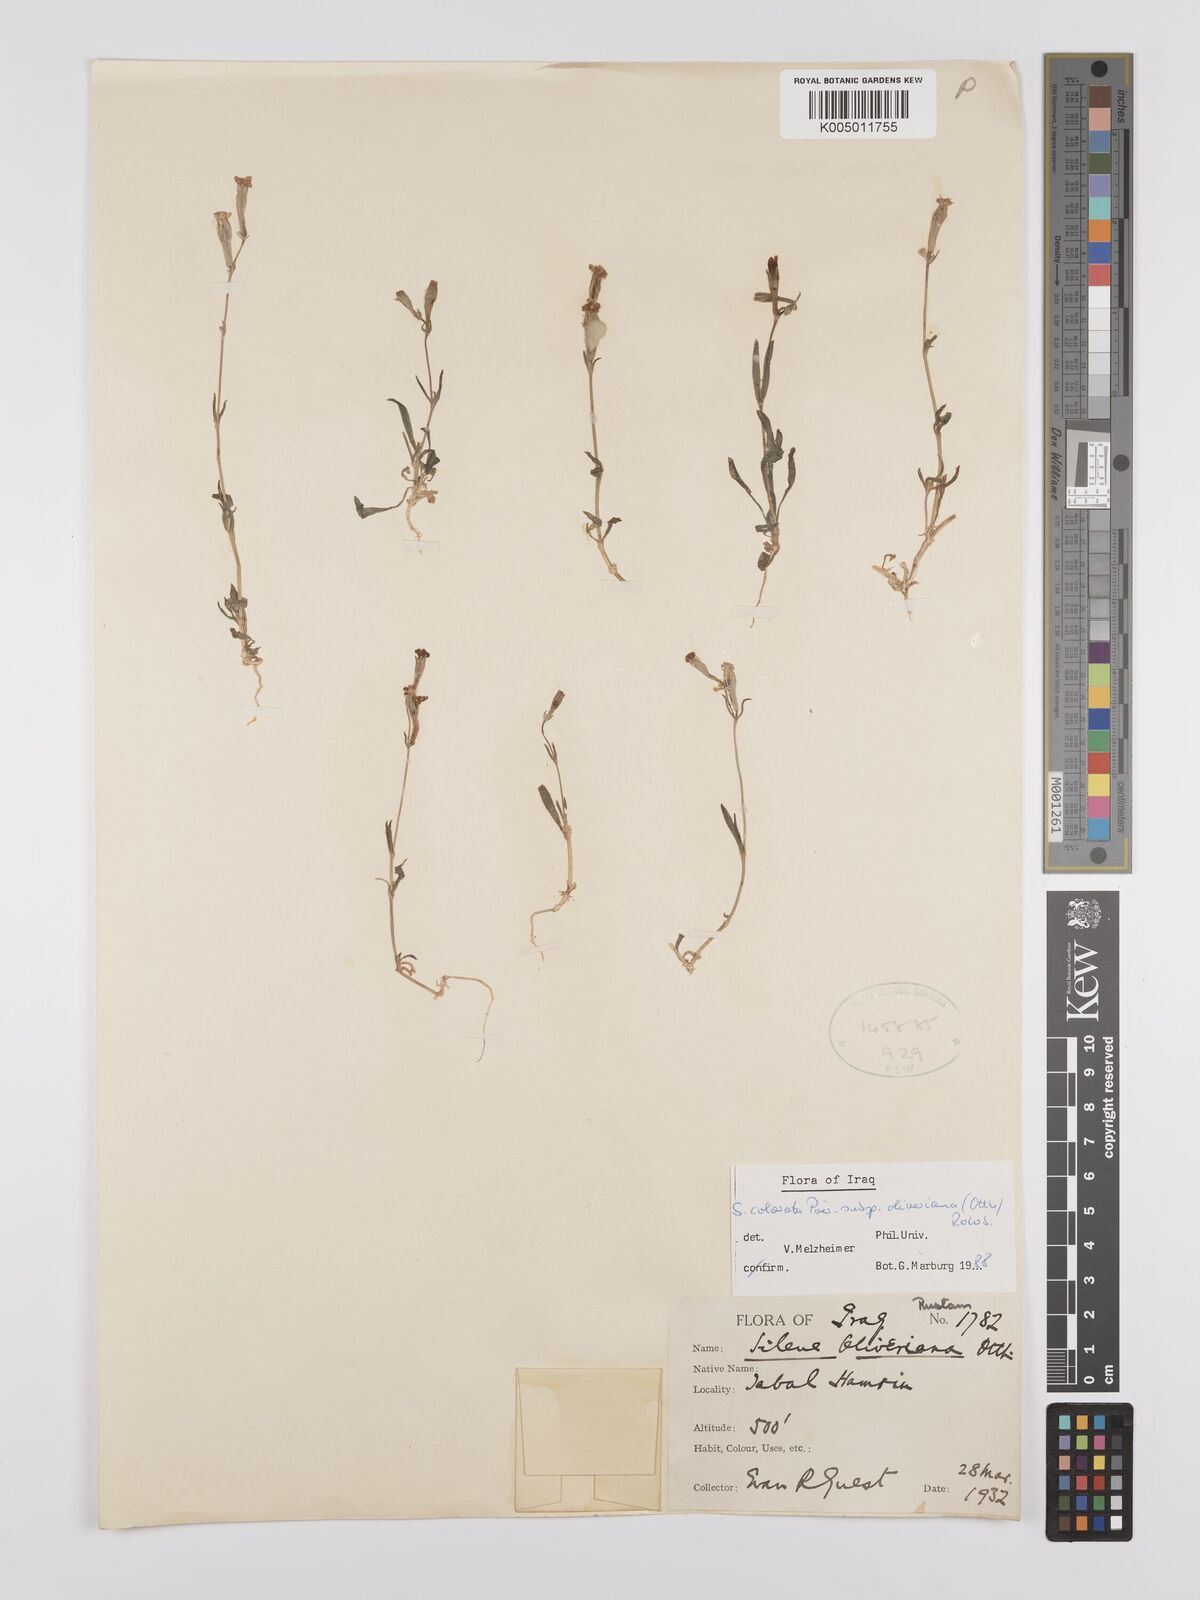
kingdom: Plantae
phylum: Tracheophyta
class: Magnoliopsida
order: Caryophyllales
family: Caryophyllaceae
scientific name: Caryophyllaceae
